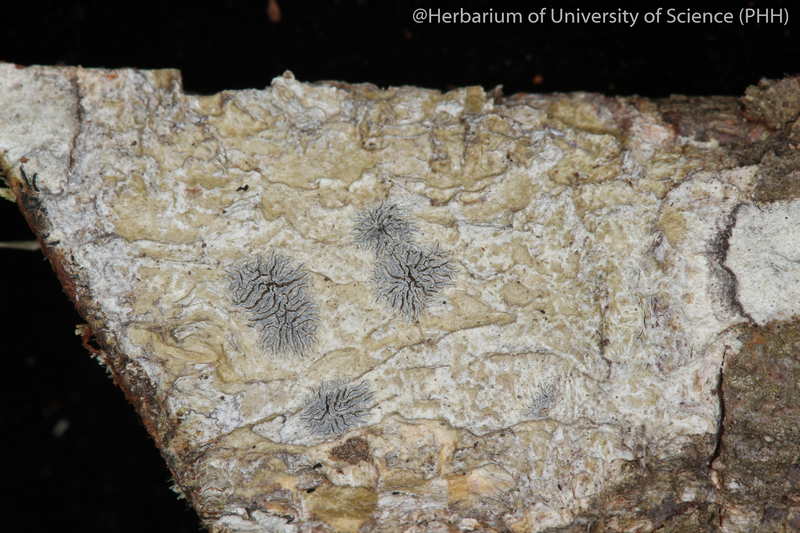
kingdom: Fungi
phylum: Ascomycota
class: Lecanoromycetes
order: Ostropales
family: Graphidaceae
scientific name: Graphidaceae
